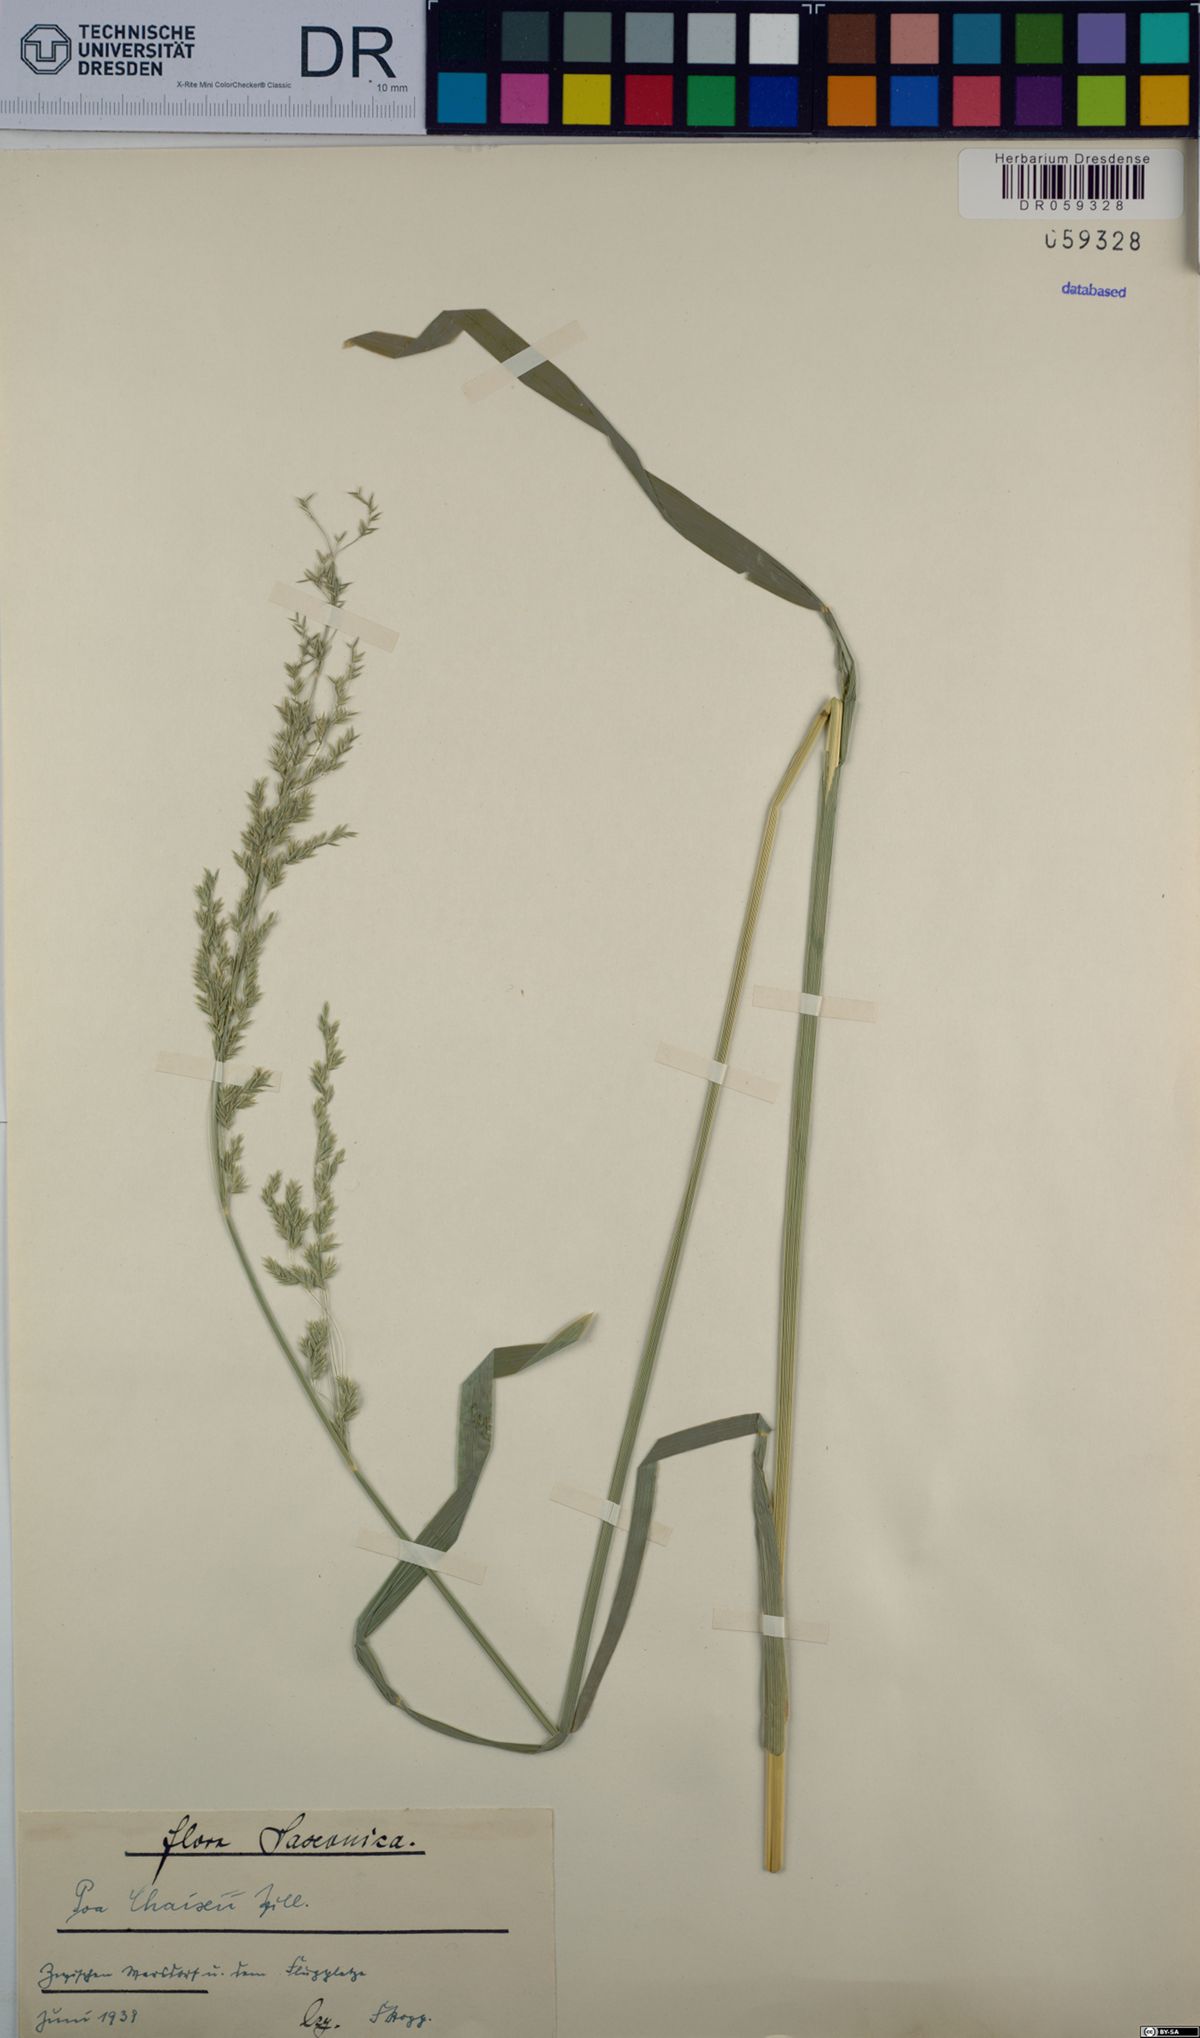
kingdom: Plantae
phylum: Tracheophyta
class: Liliopsida
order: Poales
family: Poaceae
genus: Poa
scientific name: Poa chaixii
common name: Broad-leaved meadow-grass
